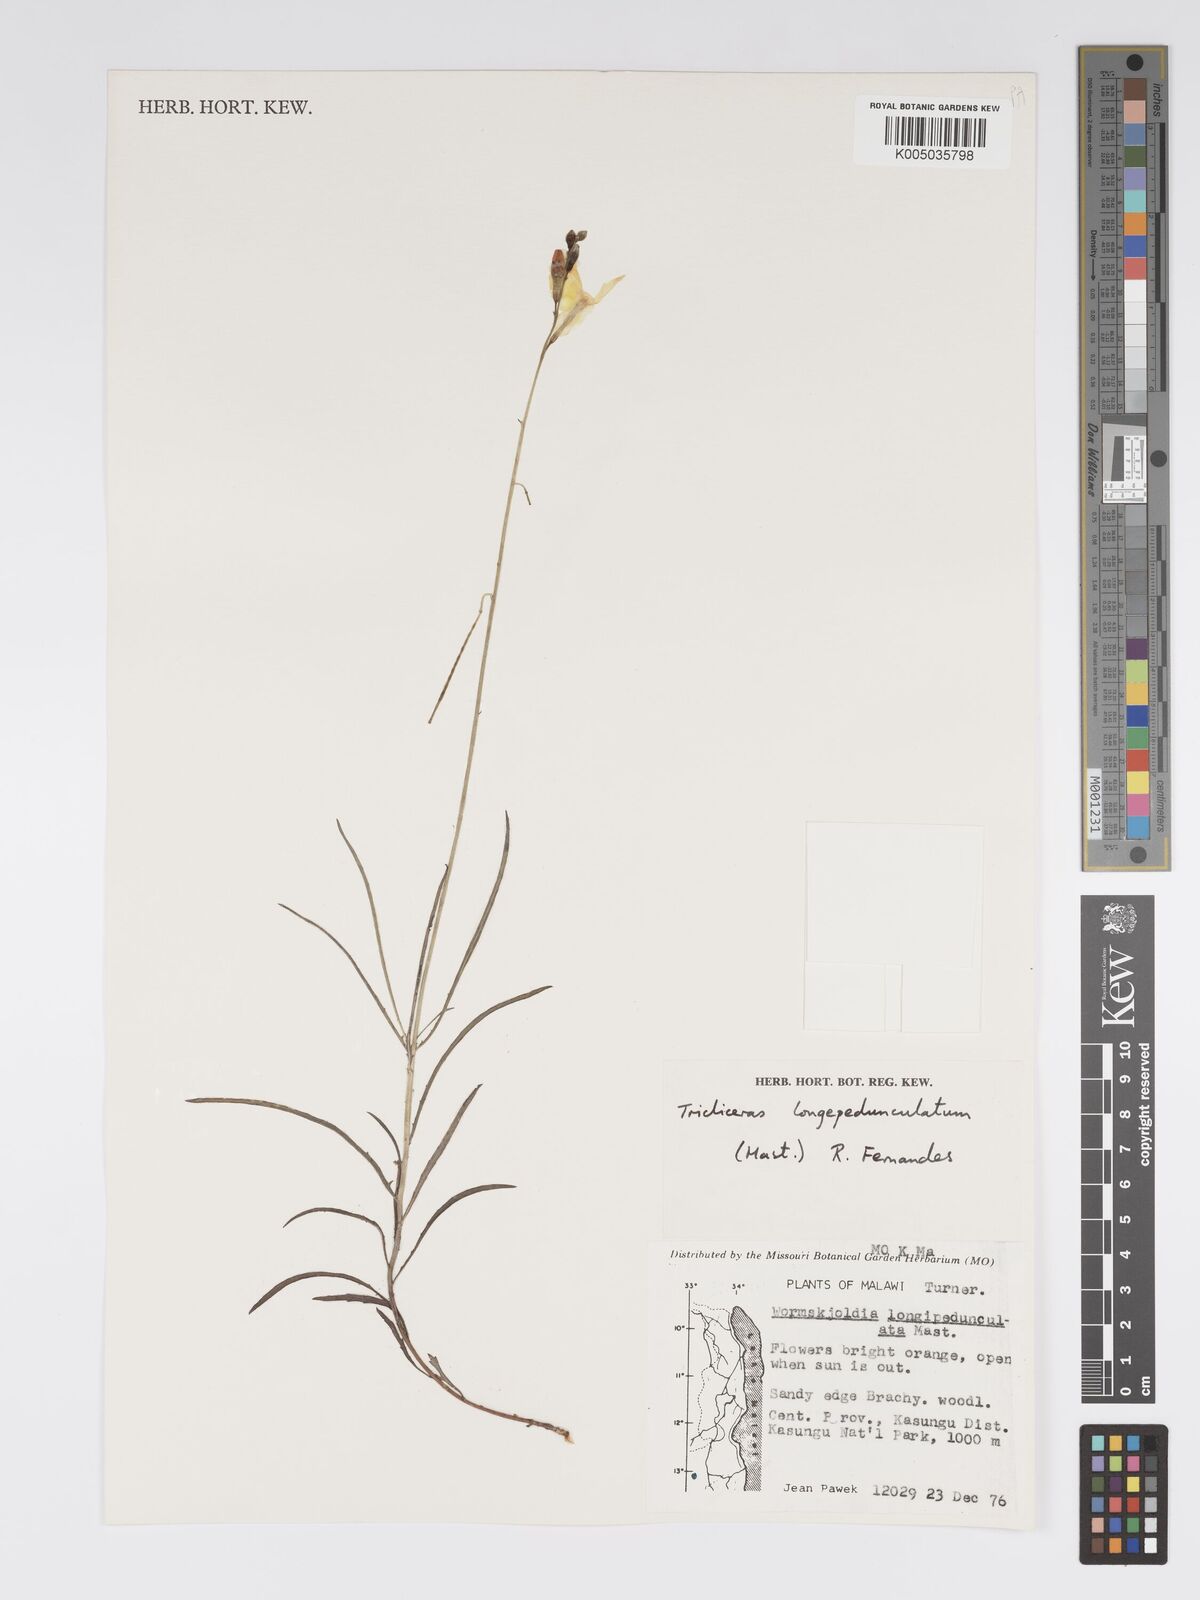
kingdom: Plantae
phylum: Tracheophyta
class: Magnoliopsida
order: Malpighiales
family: Turneraceae
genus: Tricliceras
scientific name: Tricliceras longepedunculatum
